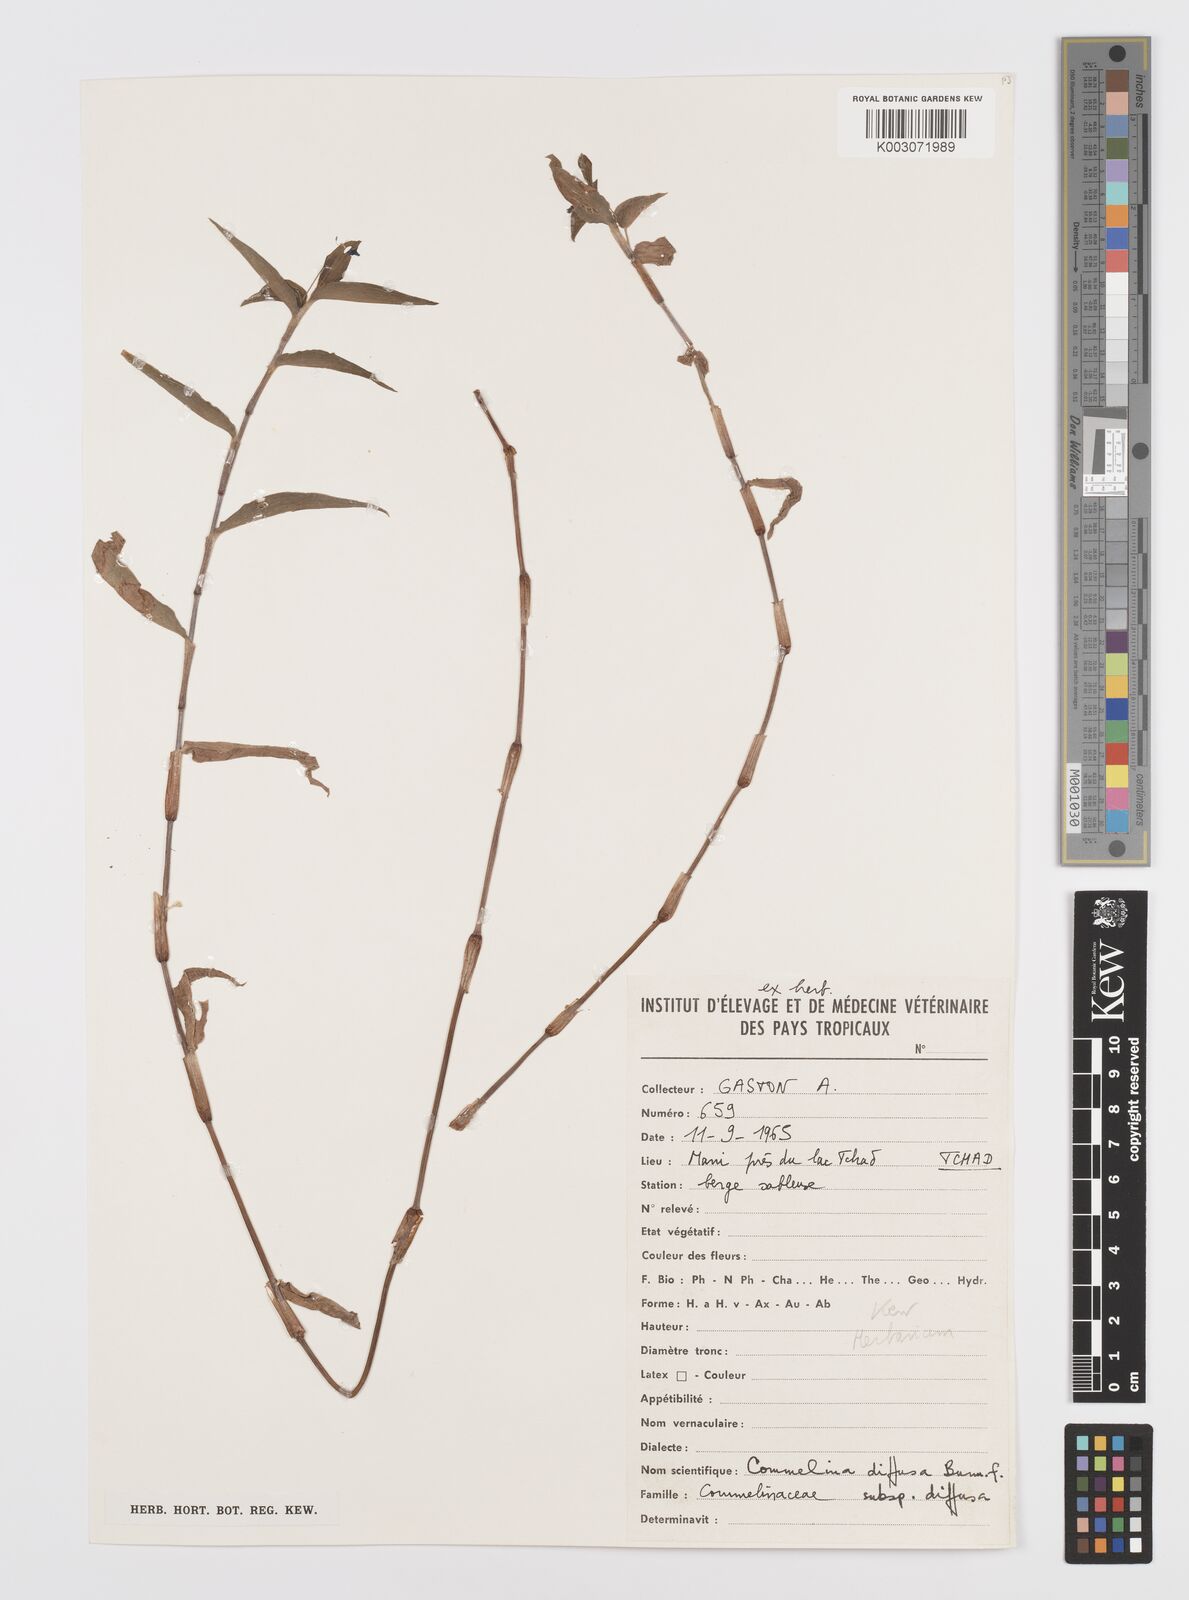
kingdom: Plantae
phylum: Tracheophyta
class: Liliopsida
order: Commelinales
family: Commelinaceae
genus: Commelina
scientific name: Commelina diffusa
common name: Climbing dayflower
